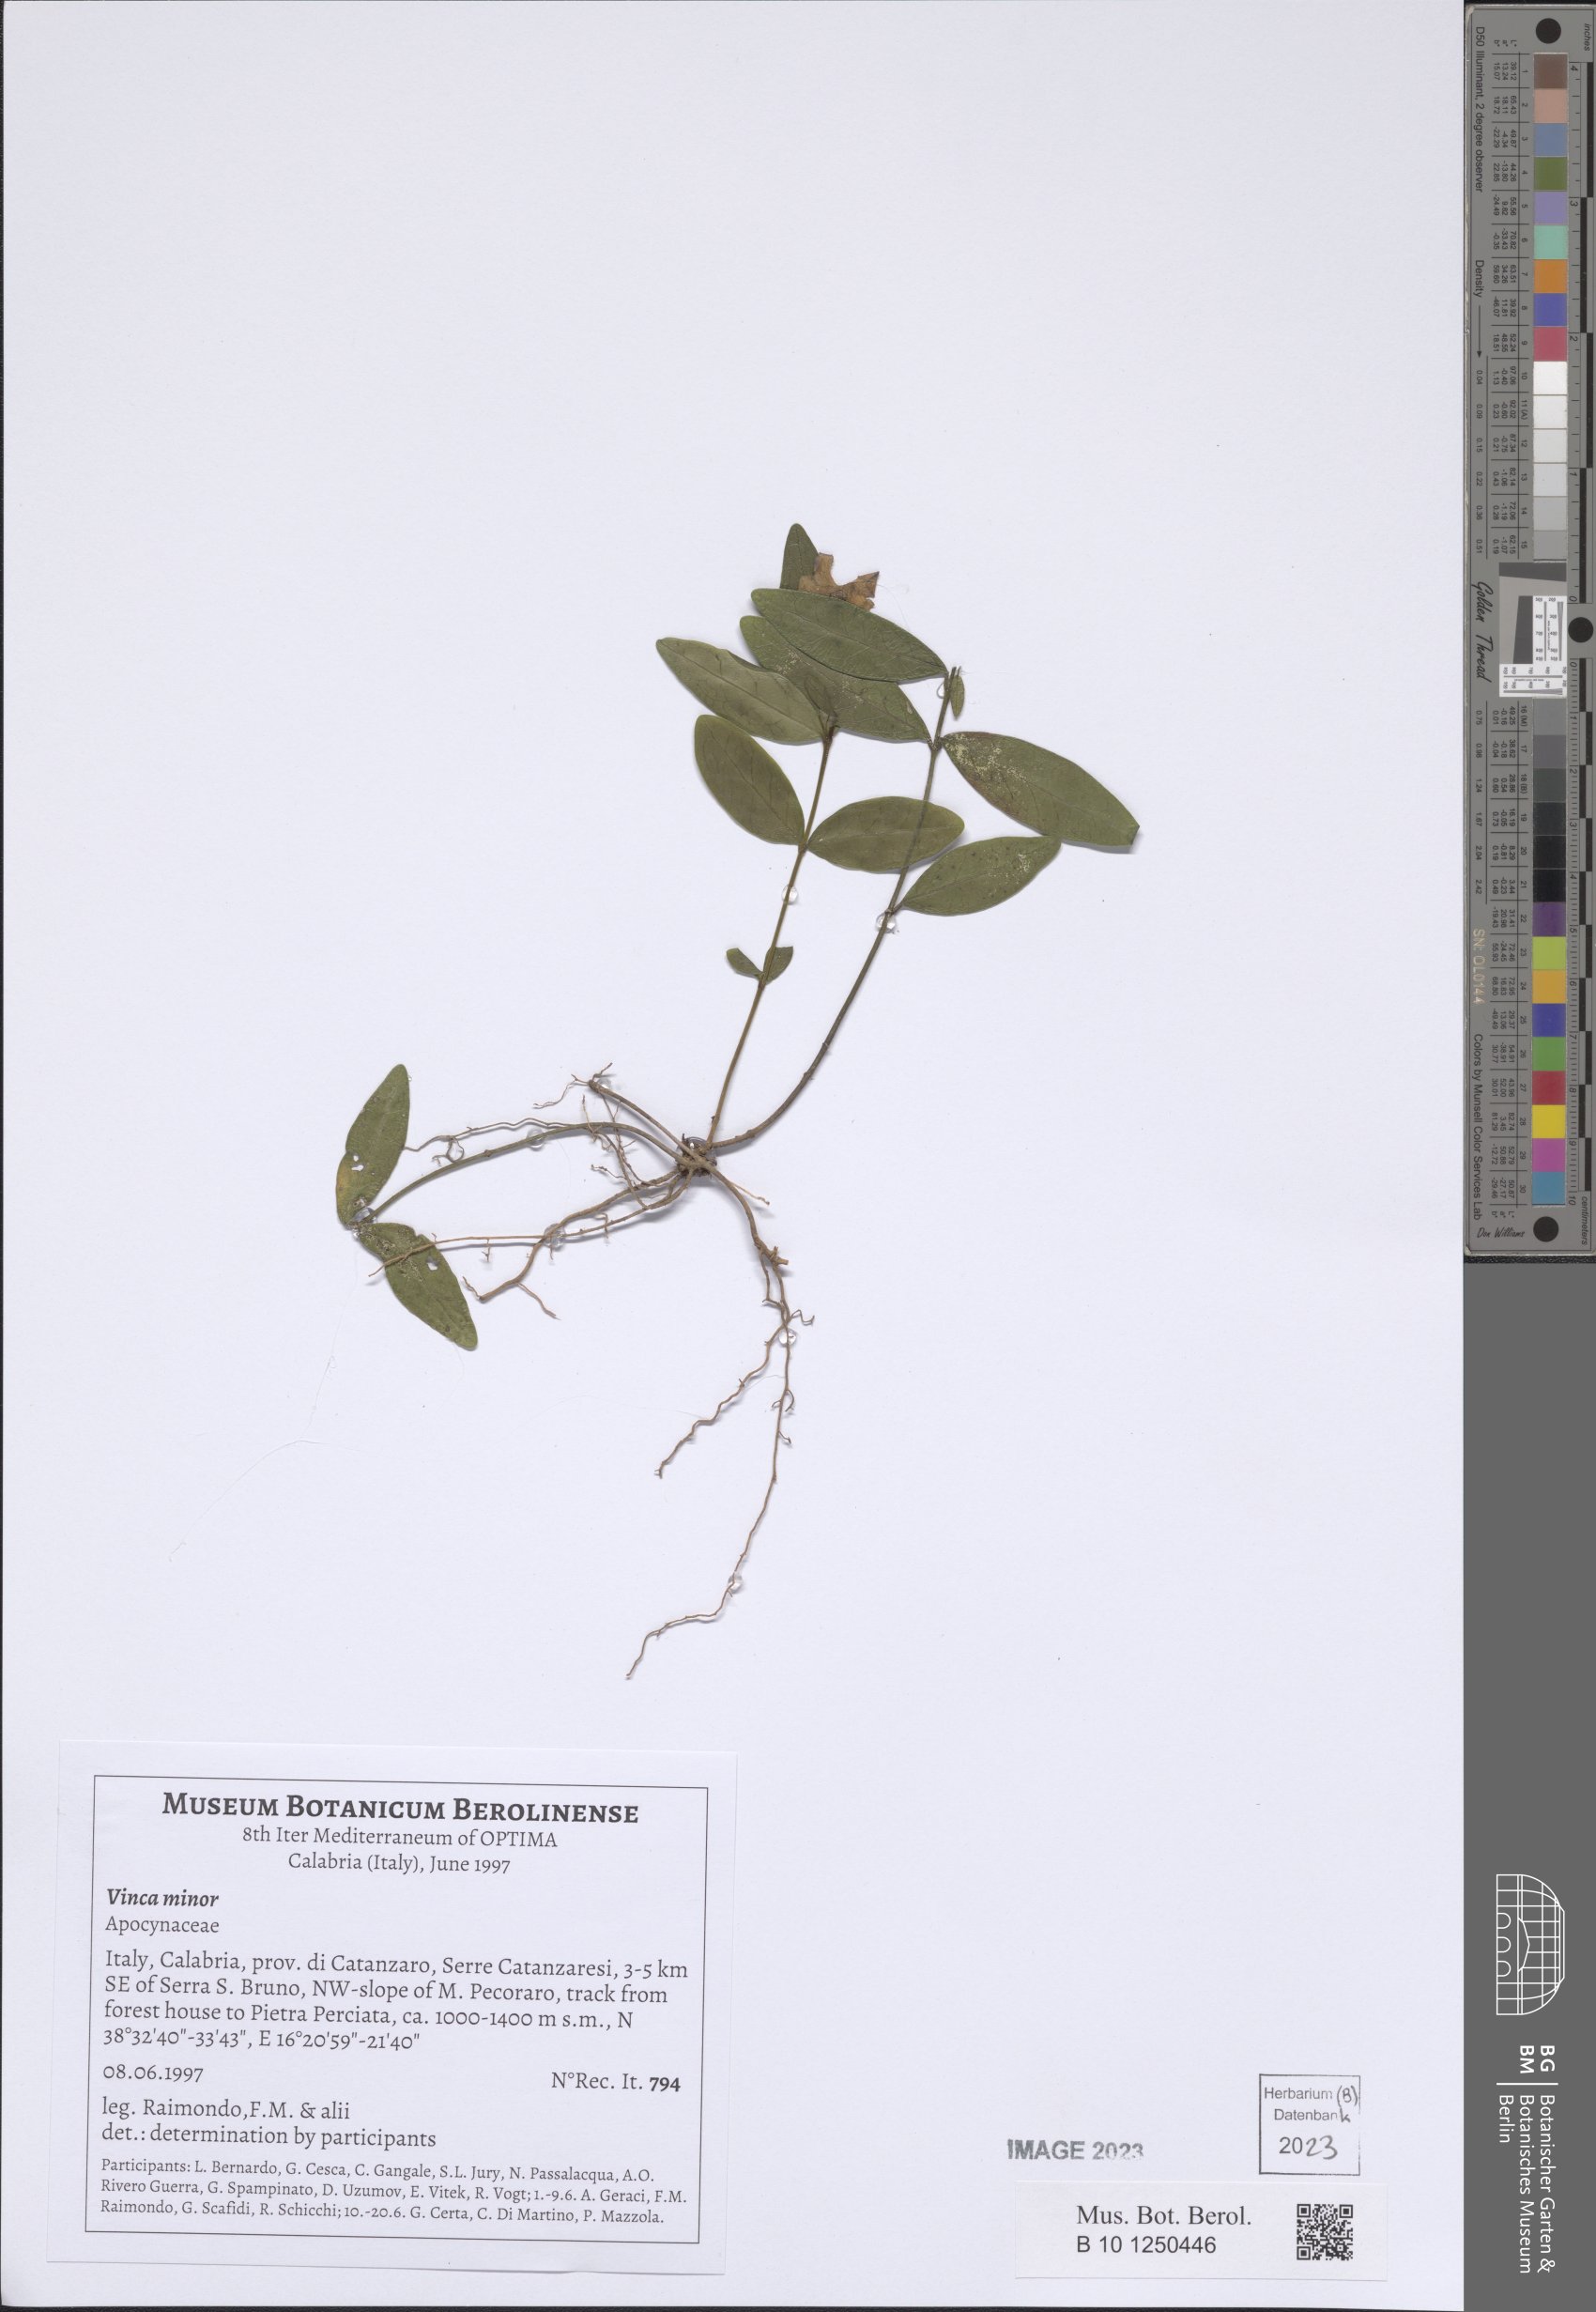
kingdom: Plantae
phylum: Tracheophyta
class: Magnoliopsida
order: Gentianales
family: Apocynaceae
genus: Vinca
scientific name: Vinca minor
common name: Lesser periwinkle
